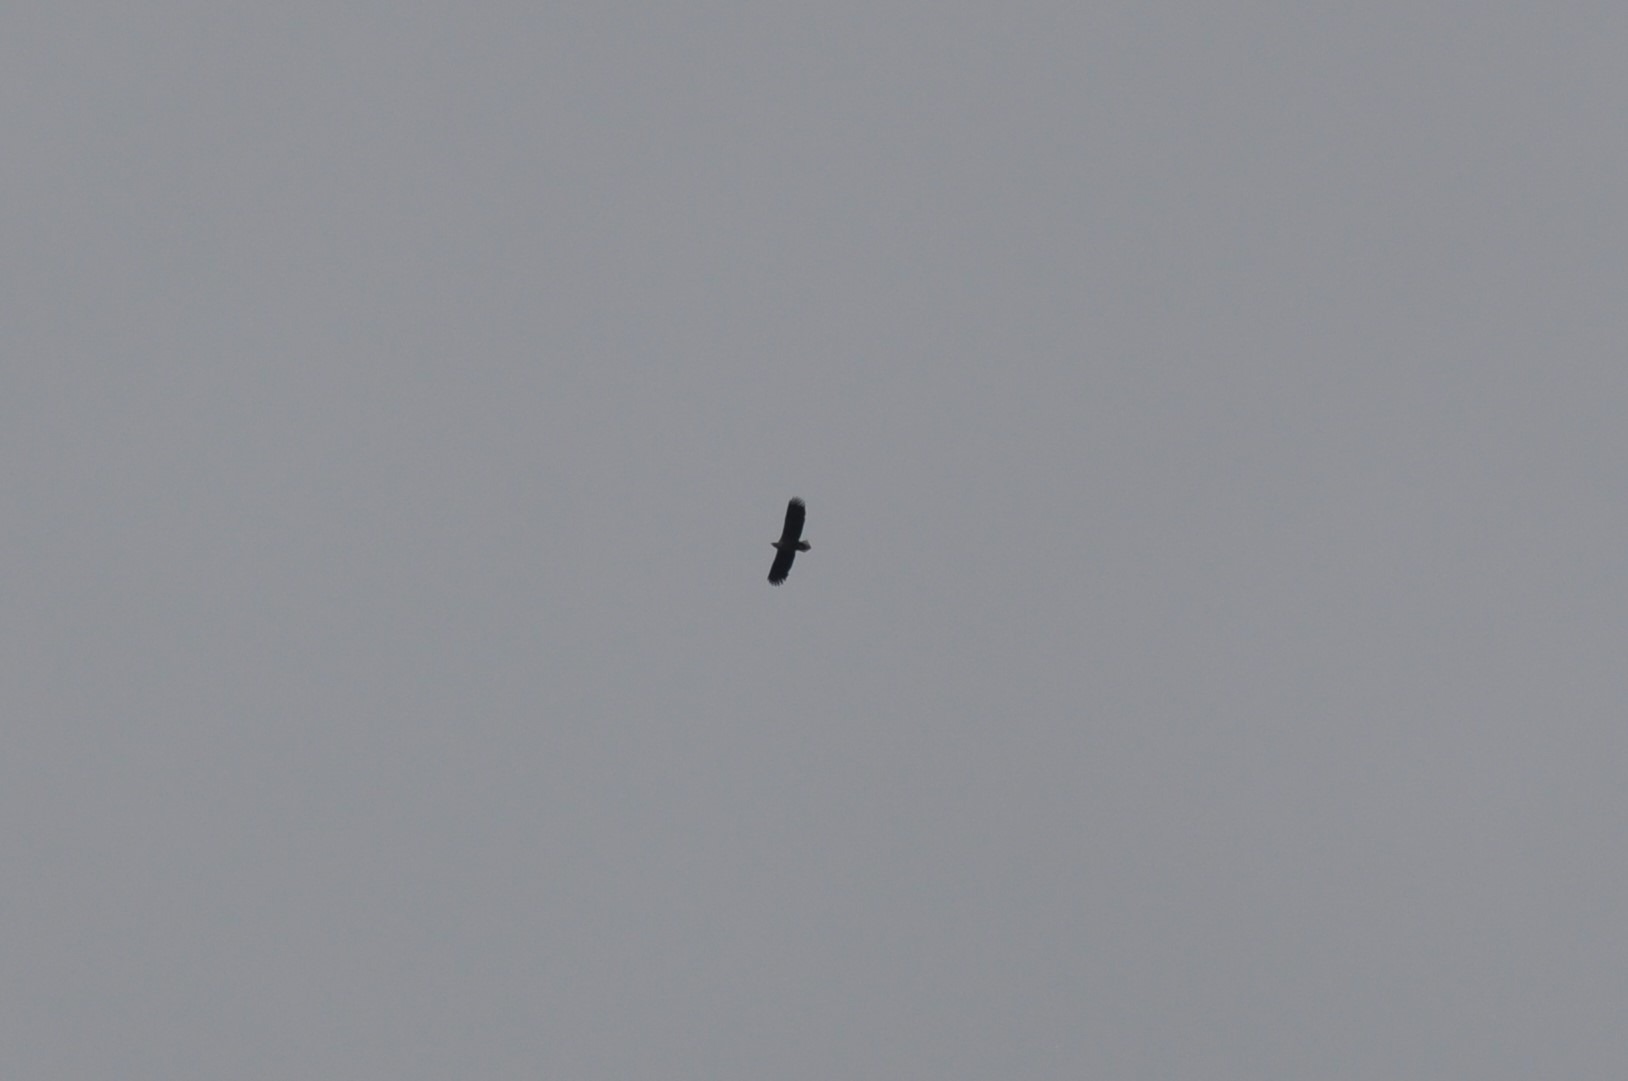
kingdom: Animalia
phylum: Chordata
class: Aves
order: Accipitriformes
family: Accipitridae
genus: Haliaeetus
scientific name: Haliaeetus albicilla
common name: Havørn
